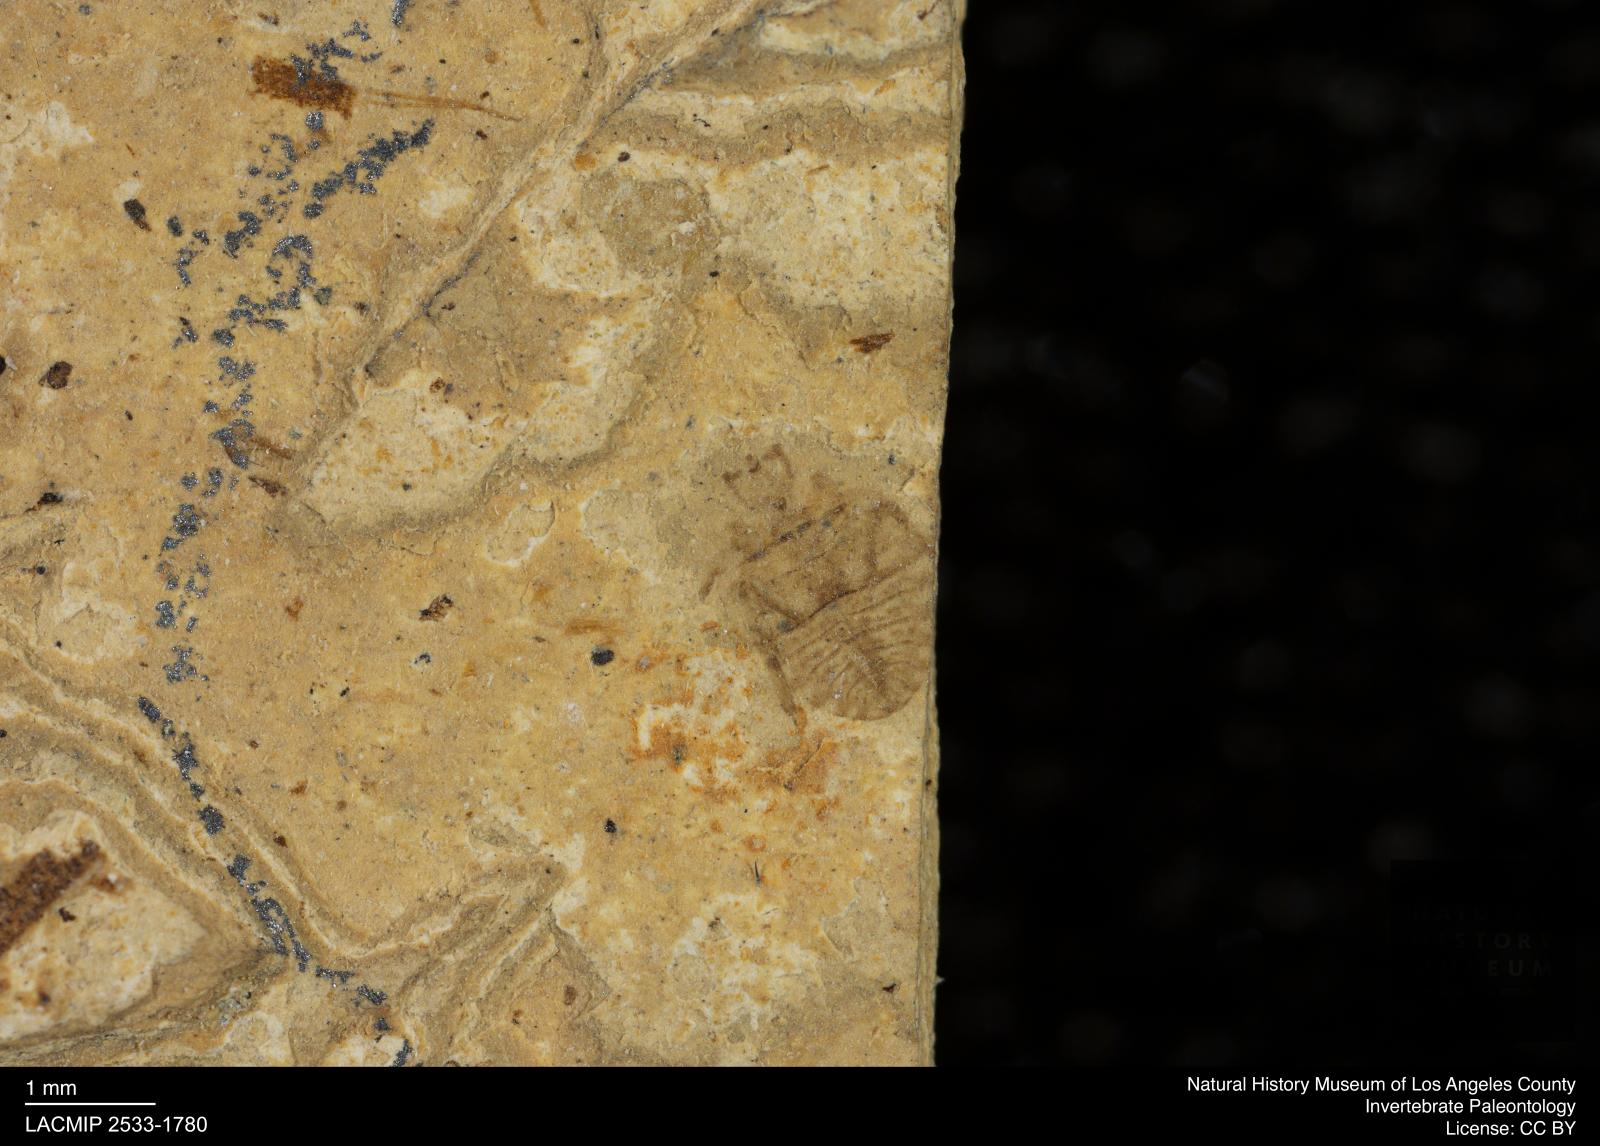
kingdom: Animalia
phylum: Arthropoda
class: Insecta
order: Hemiptera
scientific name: Hemiptera
